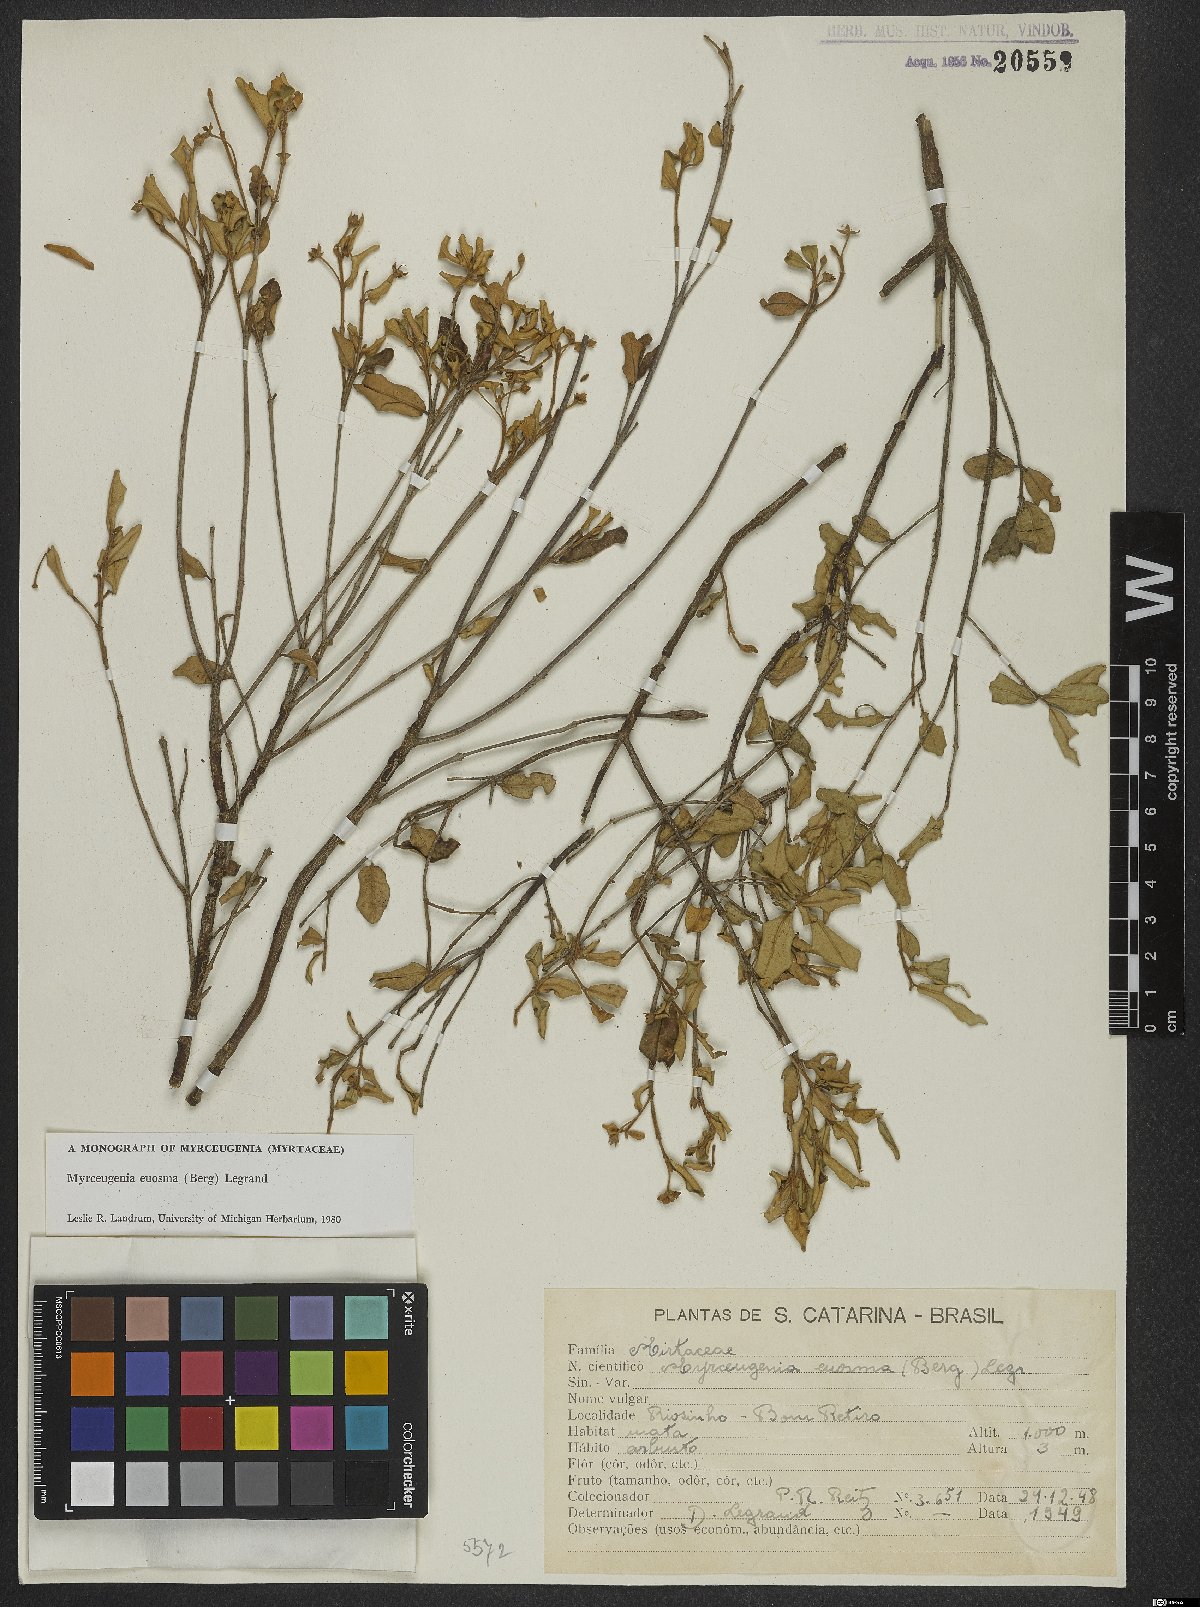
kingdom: Plantae
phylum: Tracheophyta
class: Magnoliopsida
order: Myrtales
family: Myrtaceae
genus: Myrceugenia
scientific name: Myrceugenia euosma
